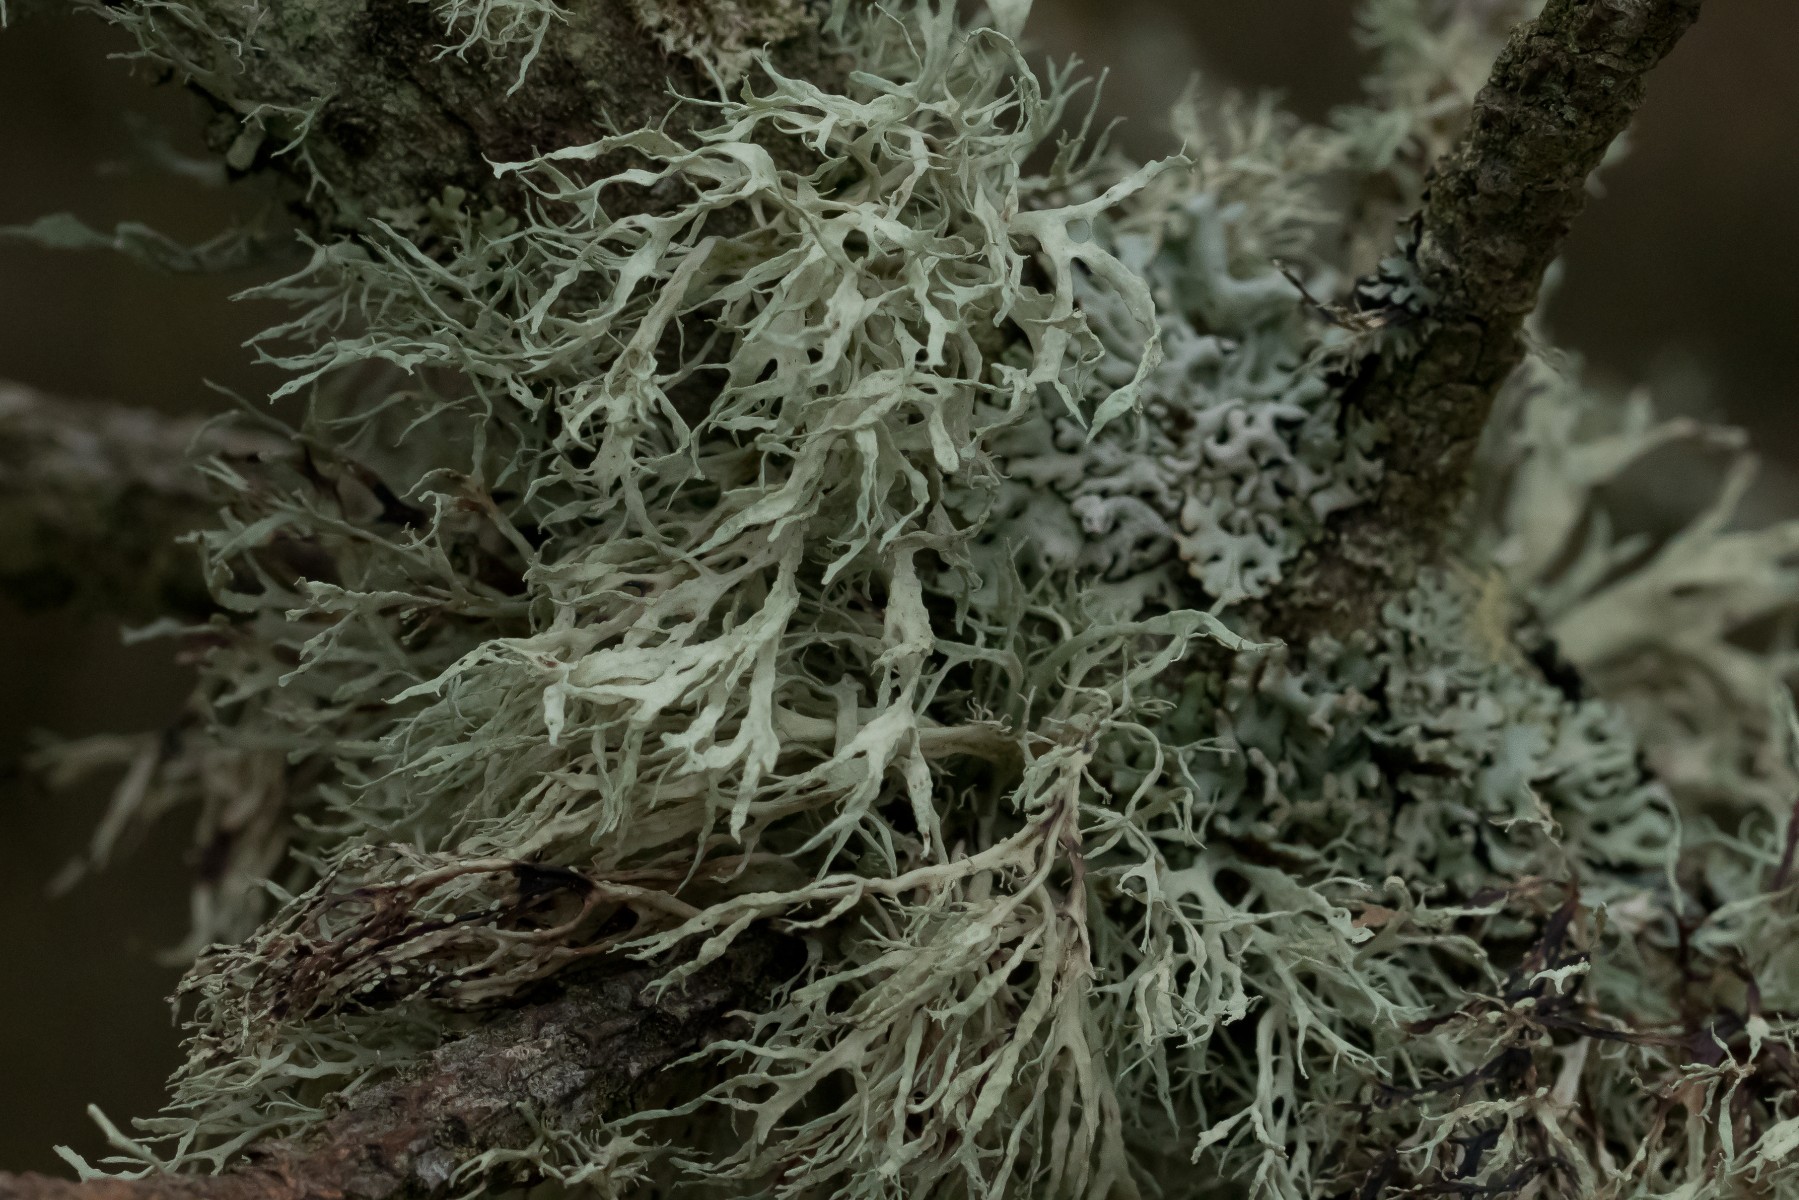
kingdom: Fungi
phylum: Ascomycota
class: Lecanoromycetes
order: Lecanorales
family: Ramalinaceae
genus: Ramalina
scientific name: Ramalina farinacea
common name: melet grenlav
